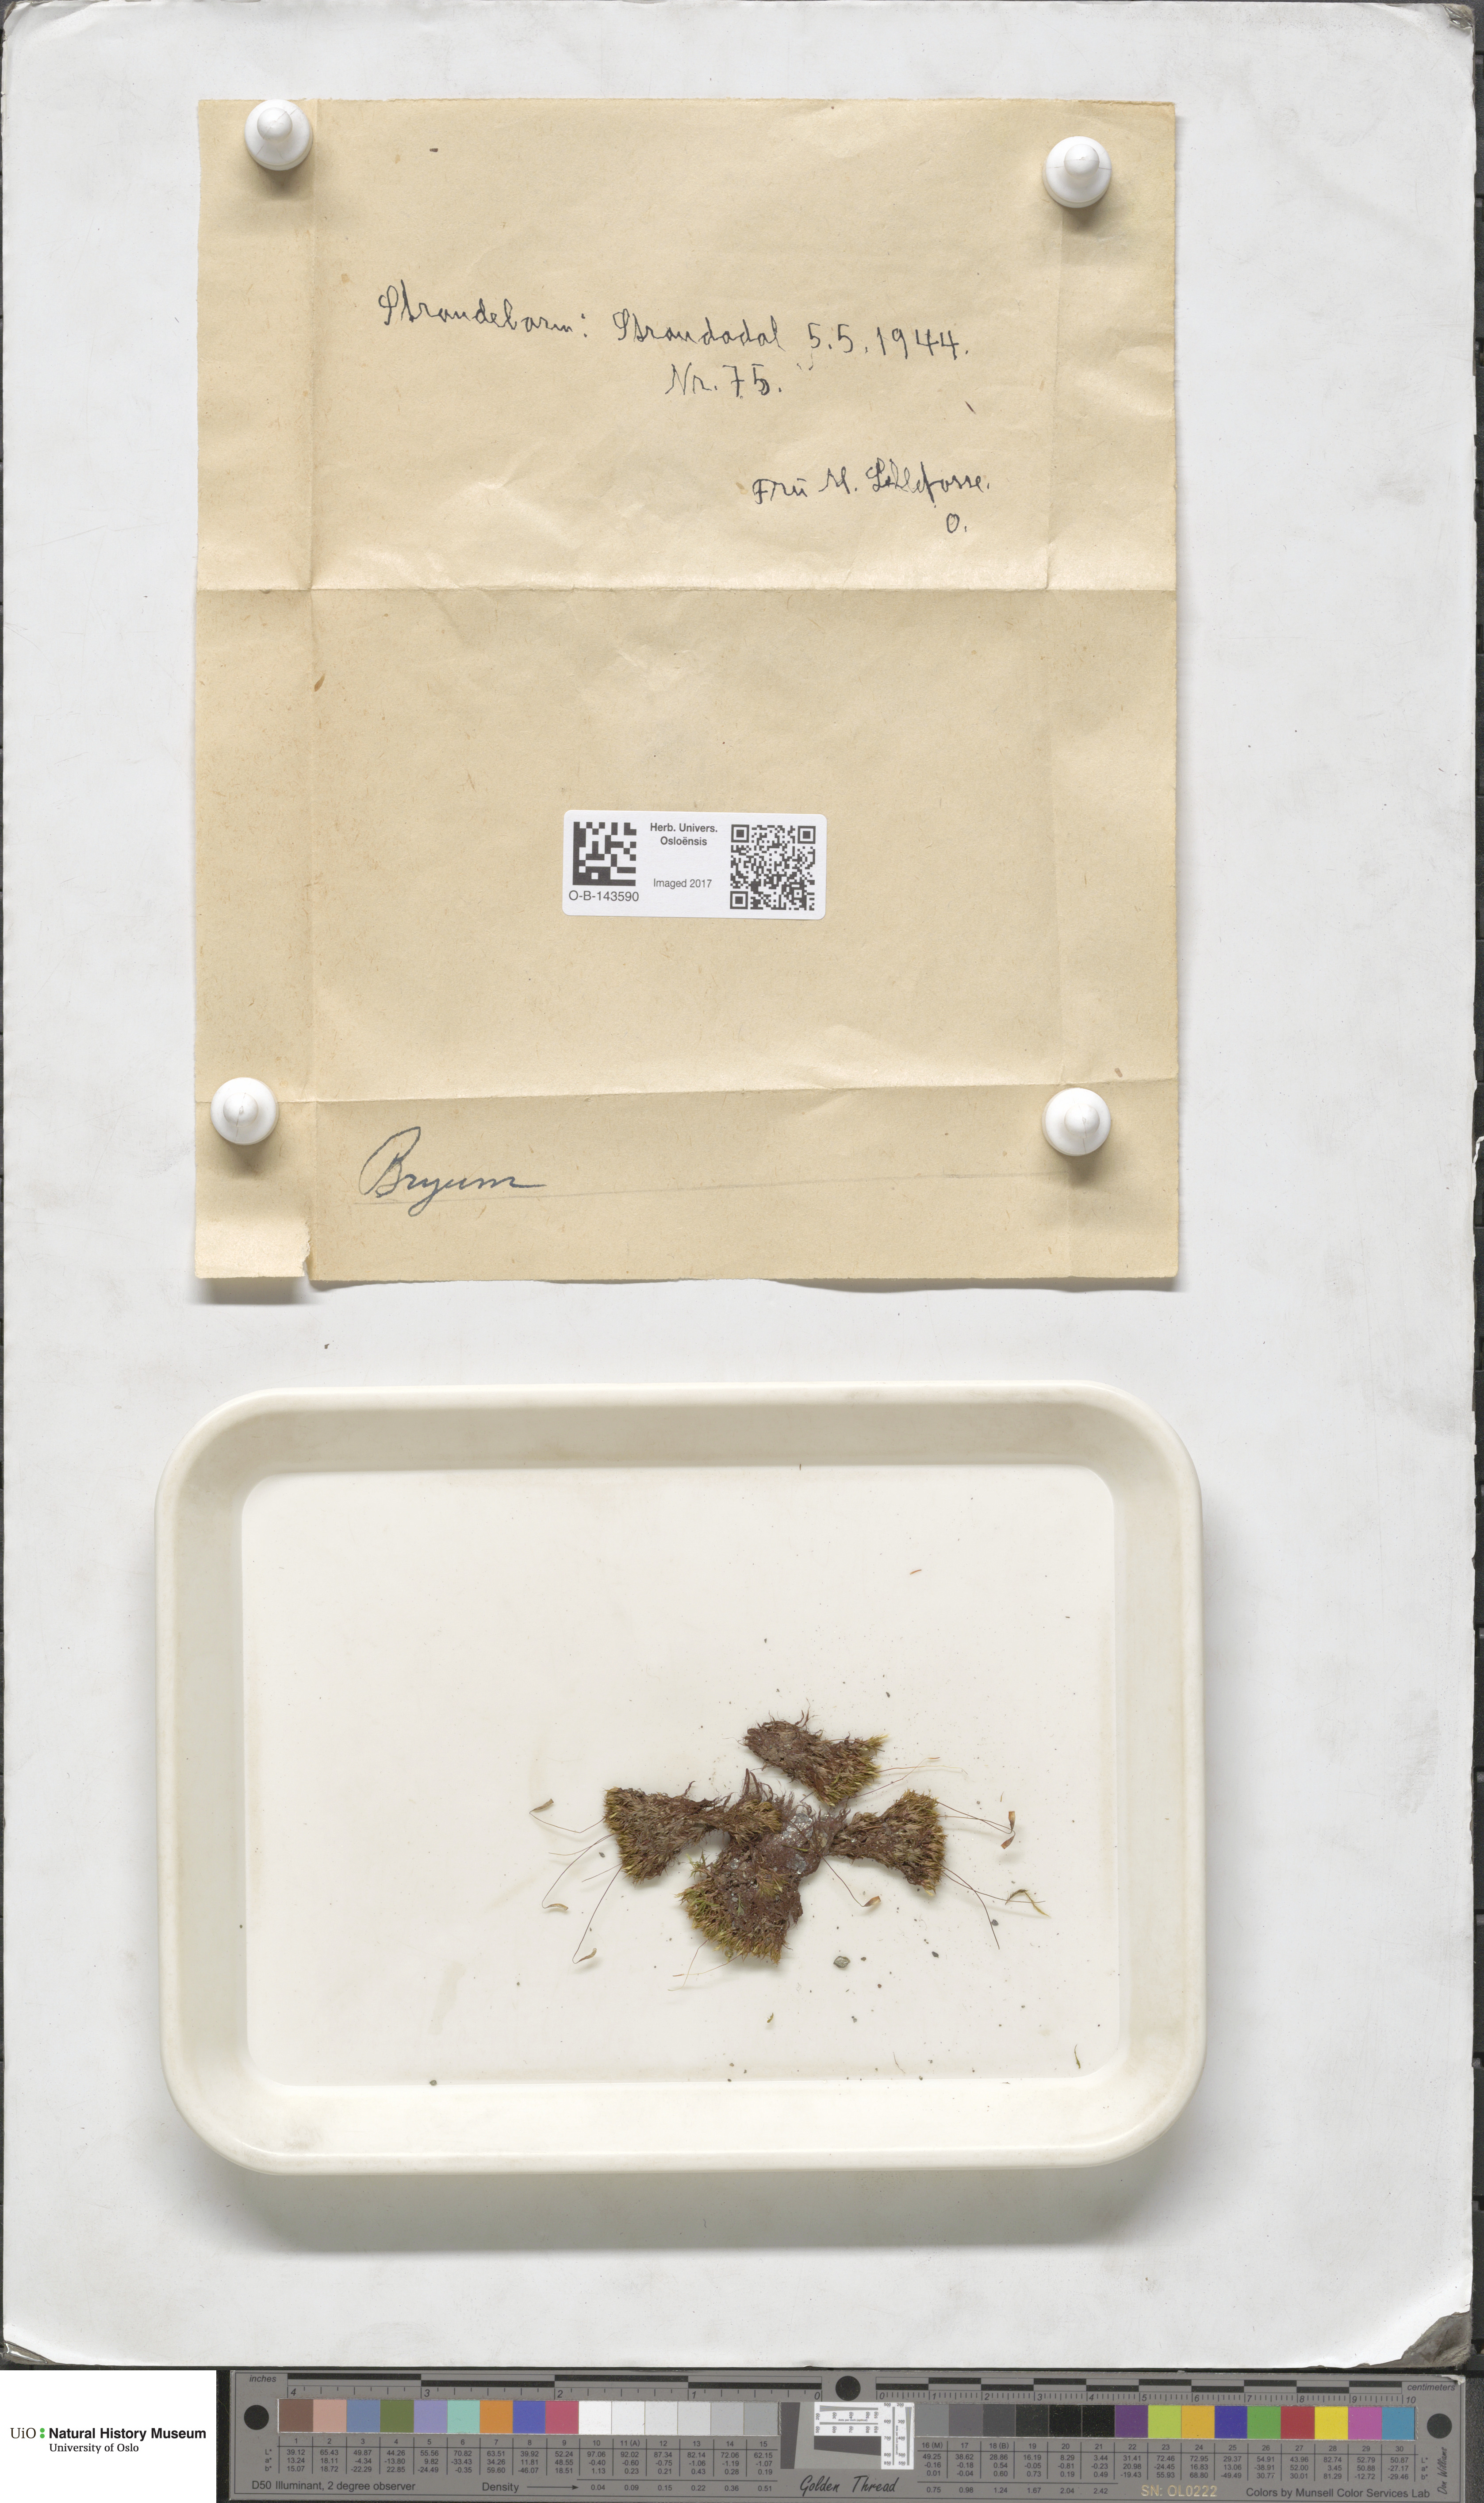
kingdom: Plantae
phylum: Bryophyta
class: Bryopsida
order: Bryales
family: Bryaceae
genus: Bryum
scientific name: Bryum
